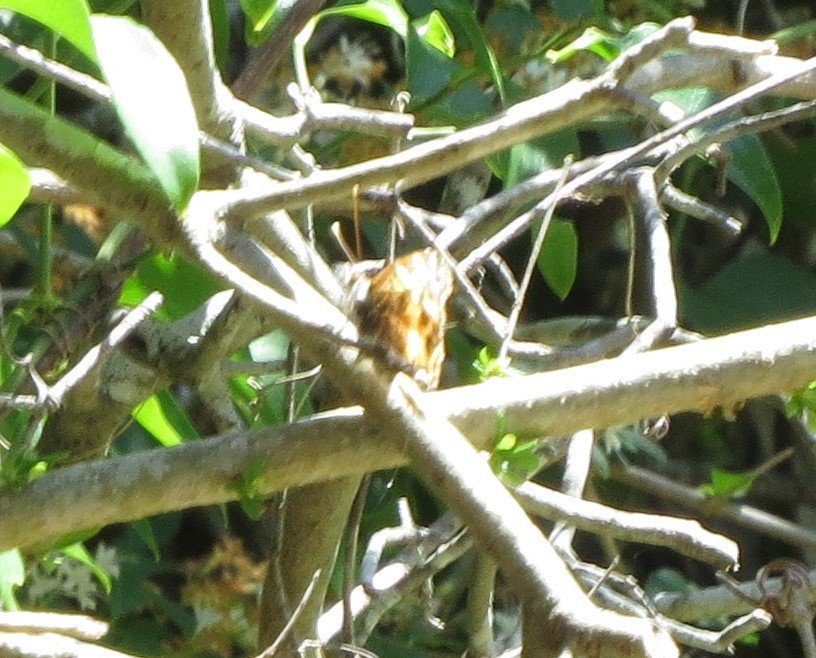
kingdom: Animalia
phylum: Arthropoda
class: Insecta
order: Lepidoptera
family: Nymphalidae
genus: Asterocampa
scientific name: Asterocampa celtis
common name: Hackberry Emperor
